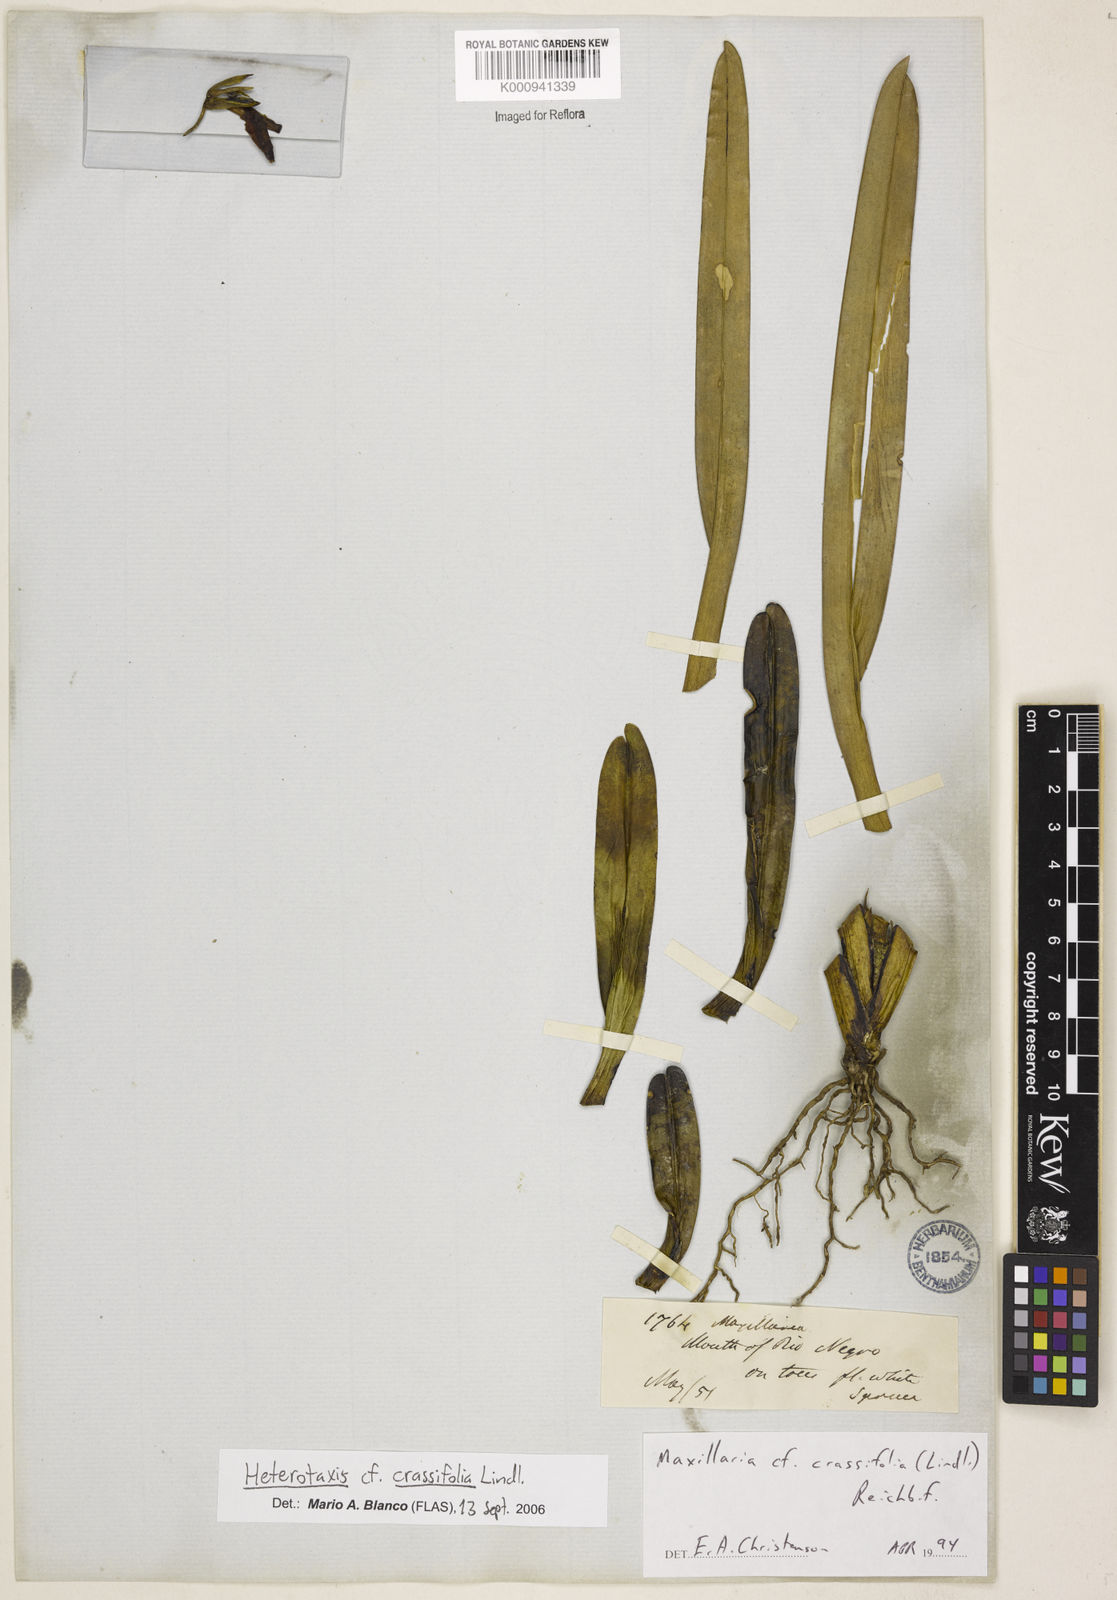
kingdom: Plantae
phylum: Tracheophyta
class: Liliopsida
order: Asparagales
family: Orchidaceae
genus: Maxillaria
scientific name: Maxillaria crassifolia
